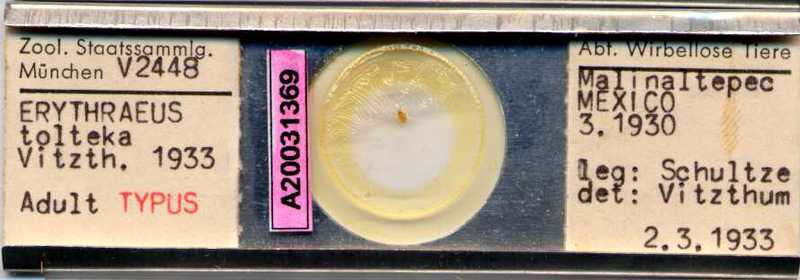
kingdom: Animalia
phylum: Arthropoda
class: Arachnida
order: Trombidiformes
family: Erythraeidae
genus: Erythraeus
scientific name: Erythraeus
